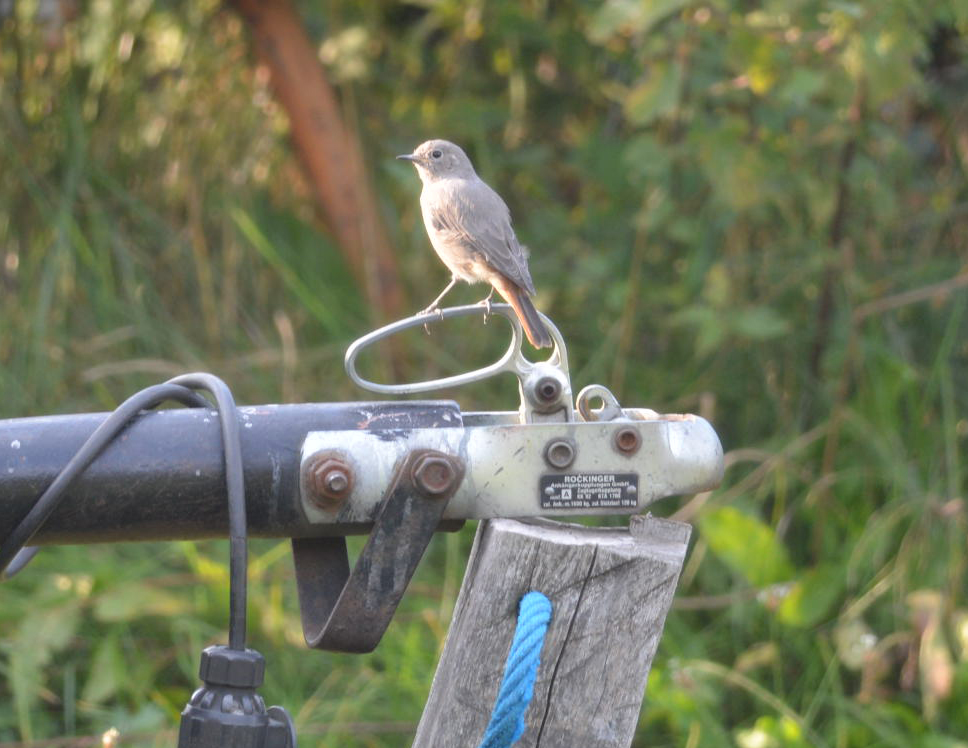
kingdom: Animalia
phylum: Chordata
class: Aves
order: Passeriformes
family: Muscicapidae
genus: Phoenicurus
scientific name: Phoenicurus ochruros
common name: Black redstart
